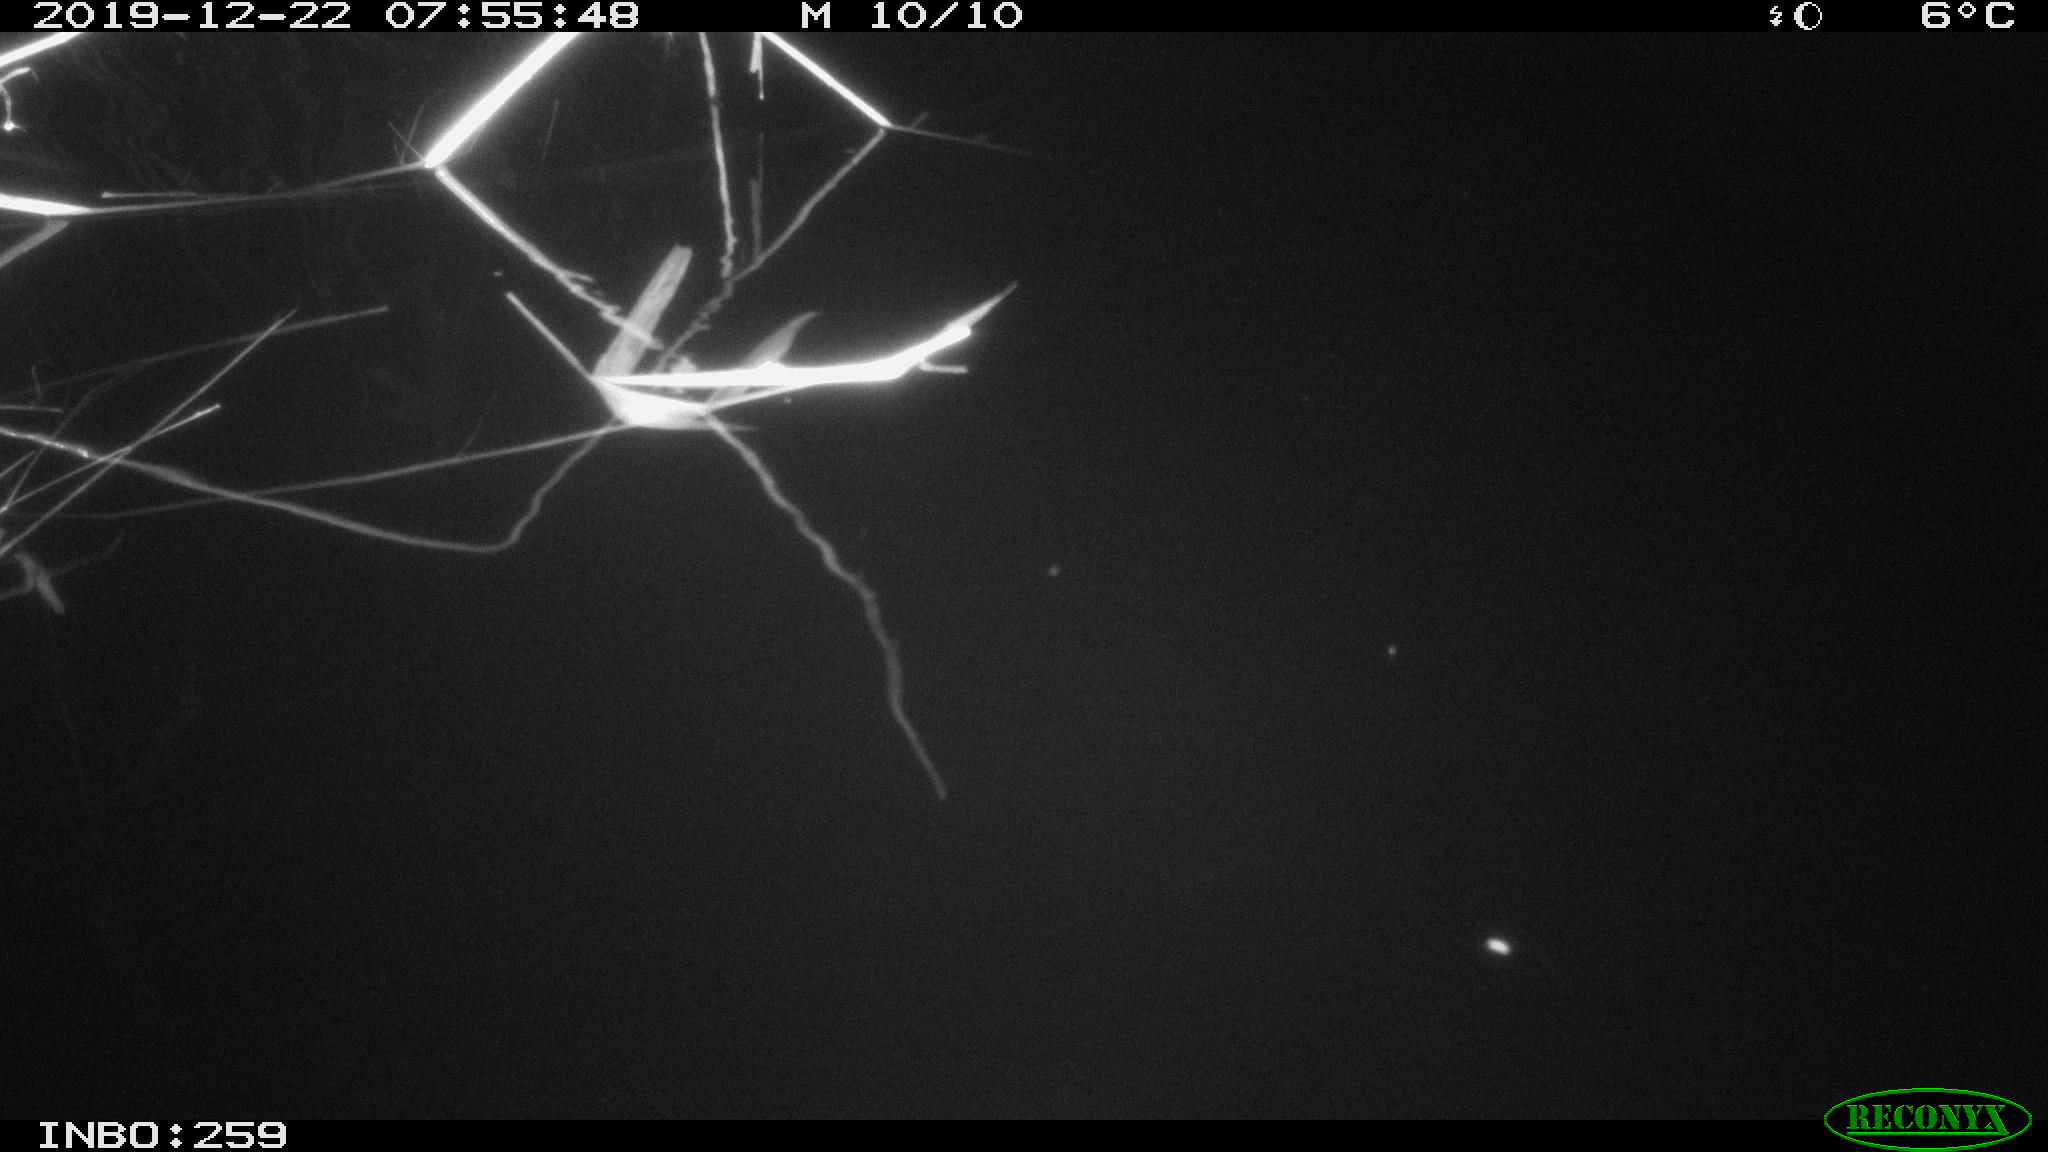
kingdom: Animalia
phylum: Chordata
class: Aves
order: Gruiformes
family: Rallidae
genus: Gallinula
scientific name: Gallinula chloropus
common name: Common moorhen
